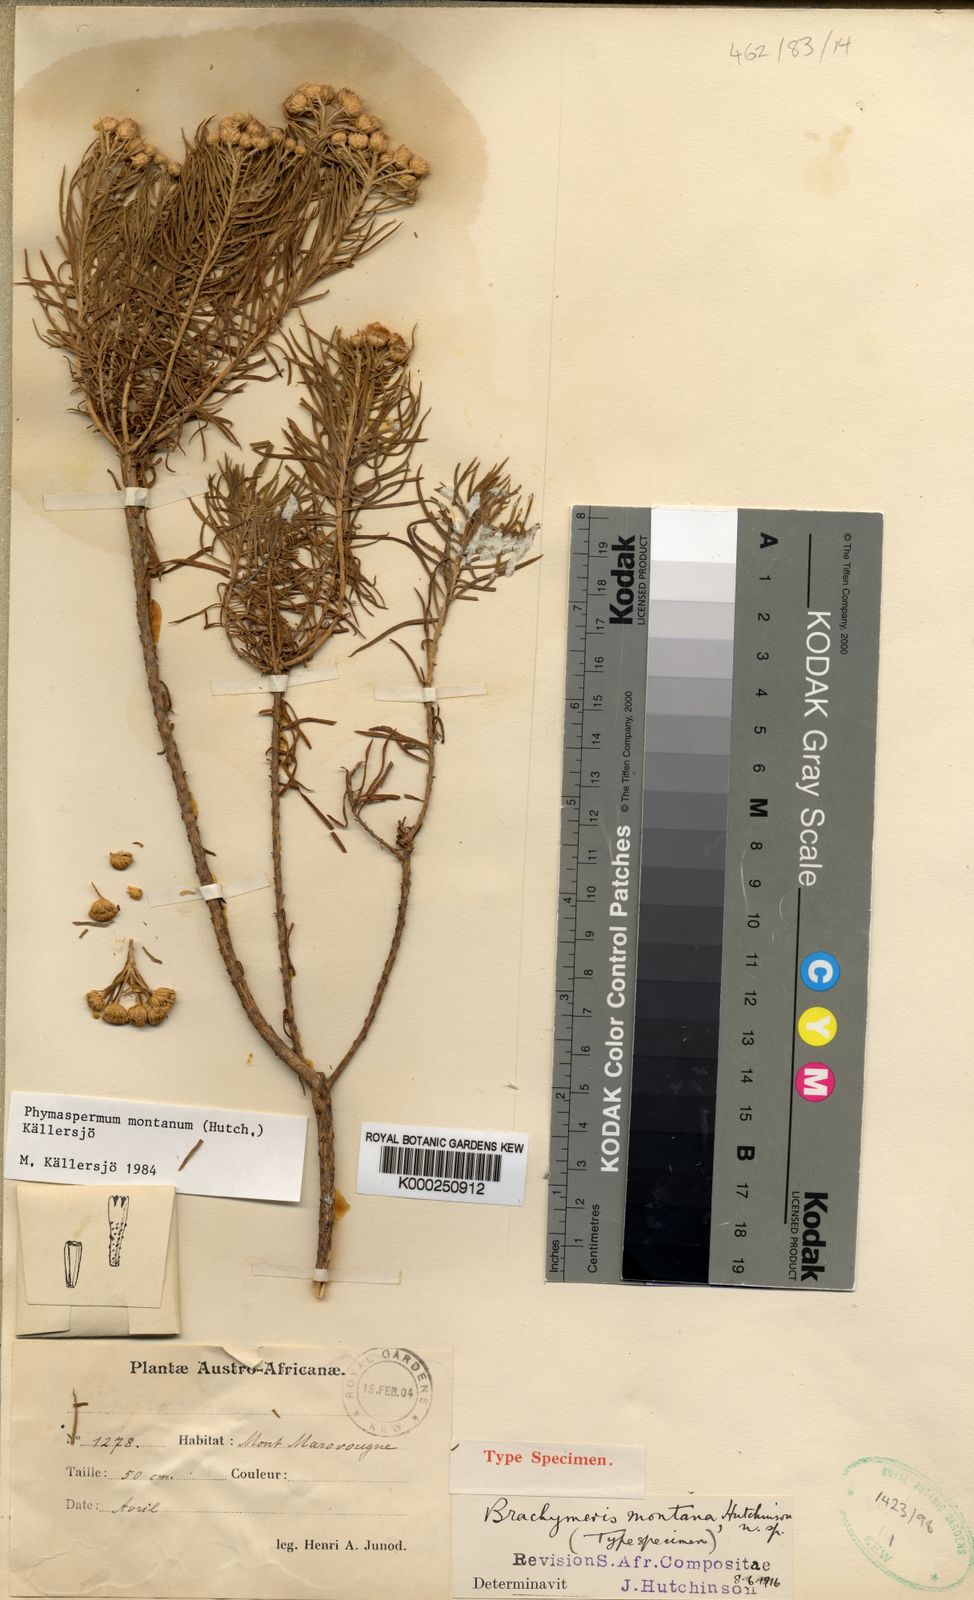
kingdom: Plantae
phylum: Tracheophyta
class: Magnoliopsida
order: Asterales
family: Asteraceae
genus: Phymaspermum
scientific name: Phymaspermum
